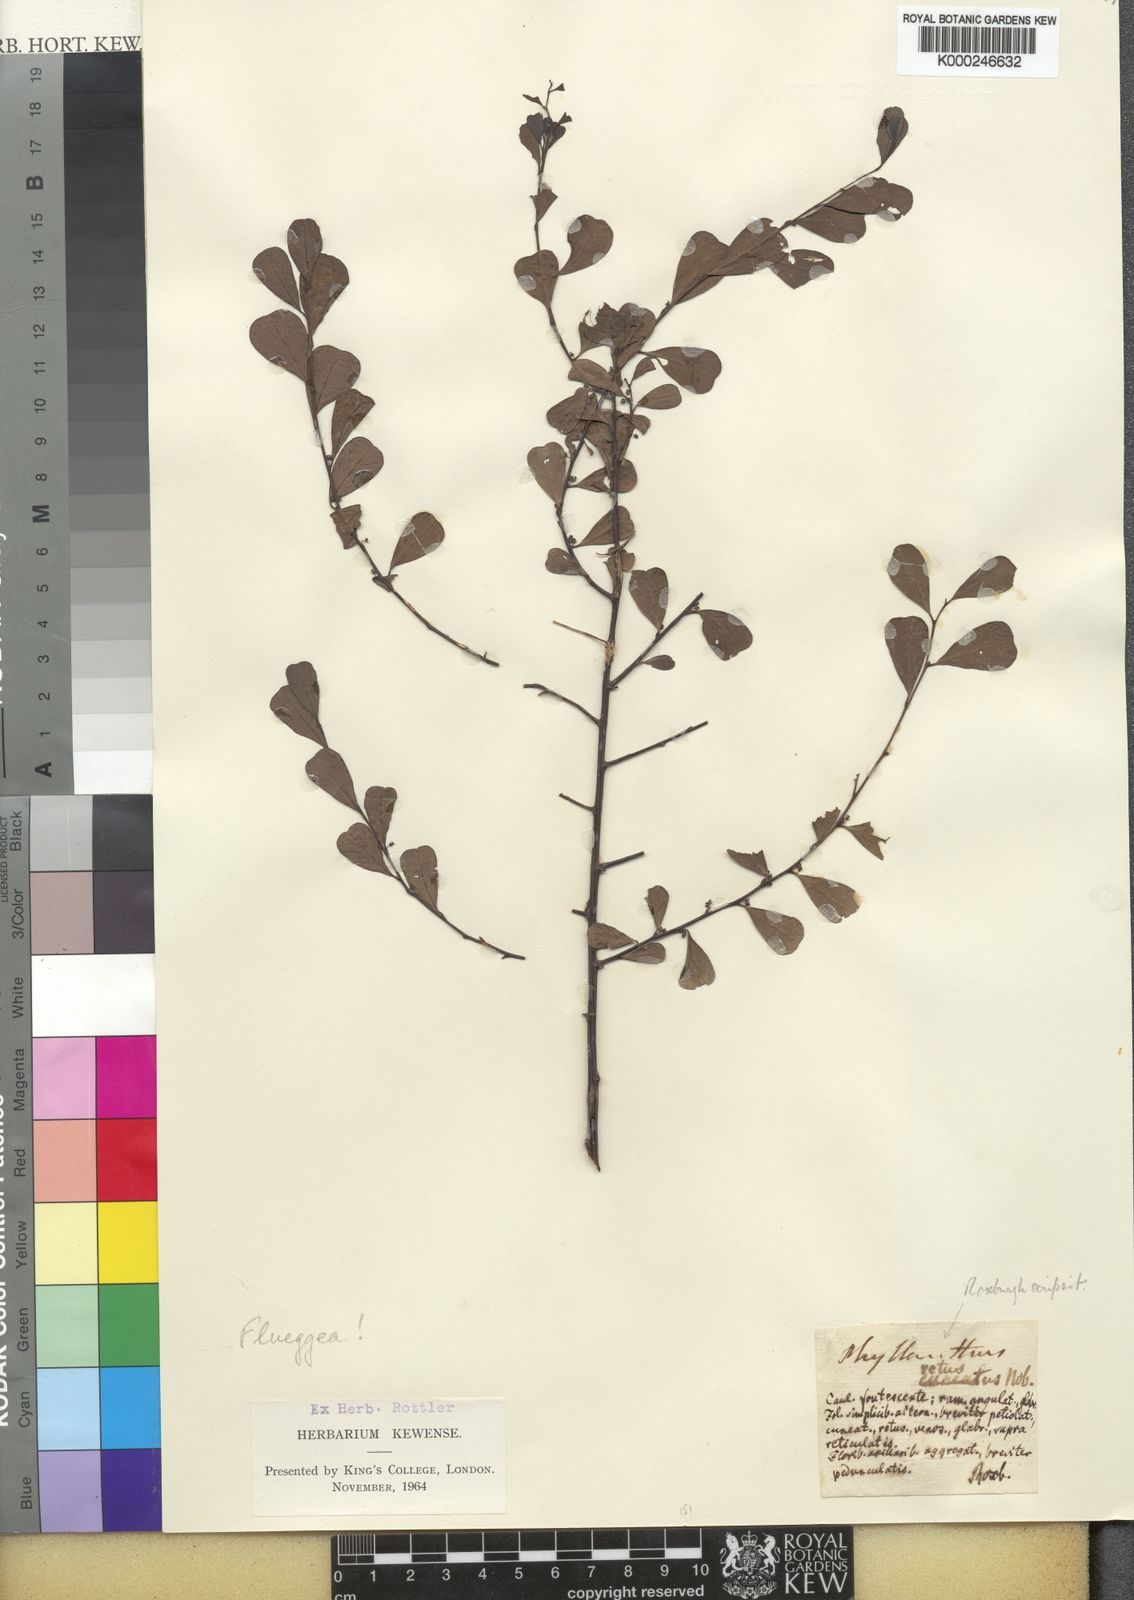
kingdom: Plantae
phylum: Tracheophyta
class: Magnoliopsida
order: Malpighiales
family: Phyllanthaceae
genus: Flueggea
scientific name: Flueggea leucopyrus
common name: Bushweed
